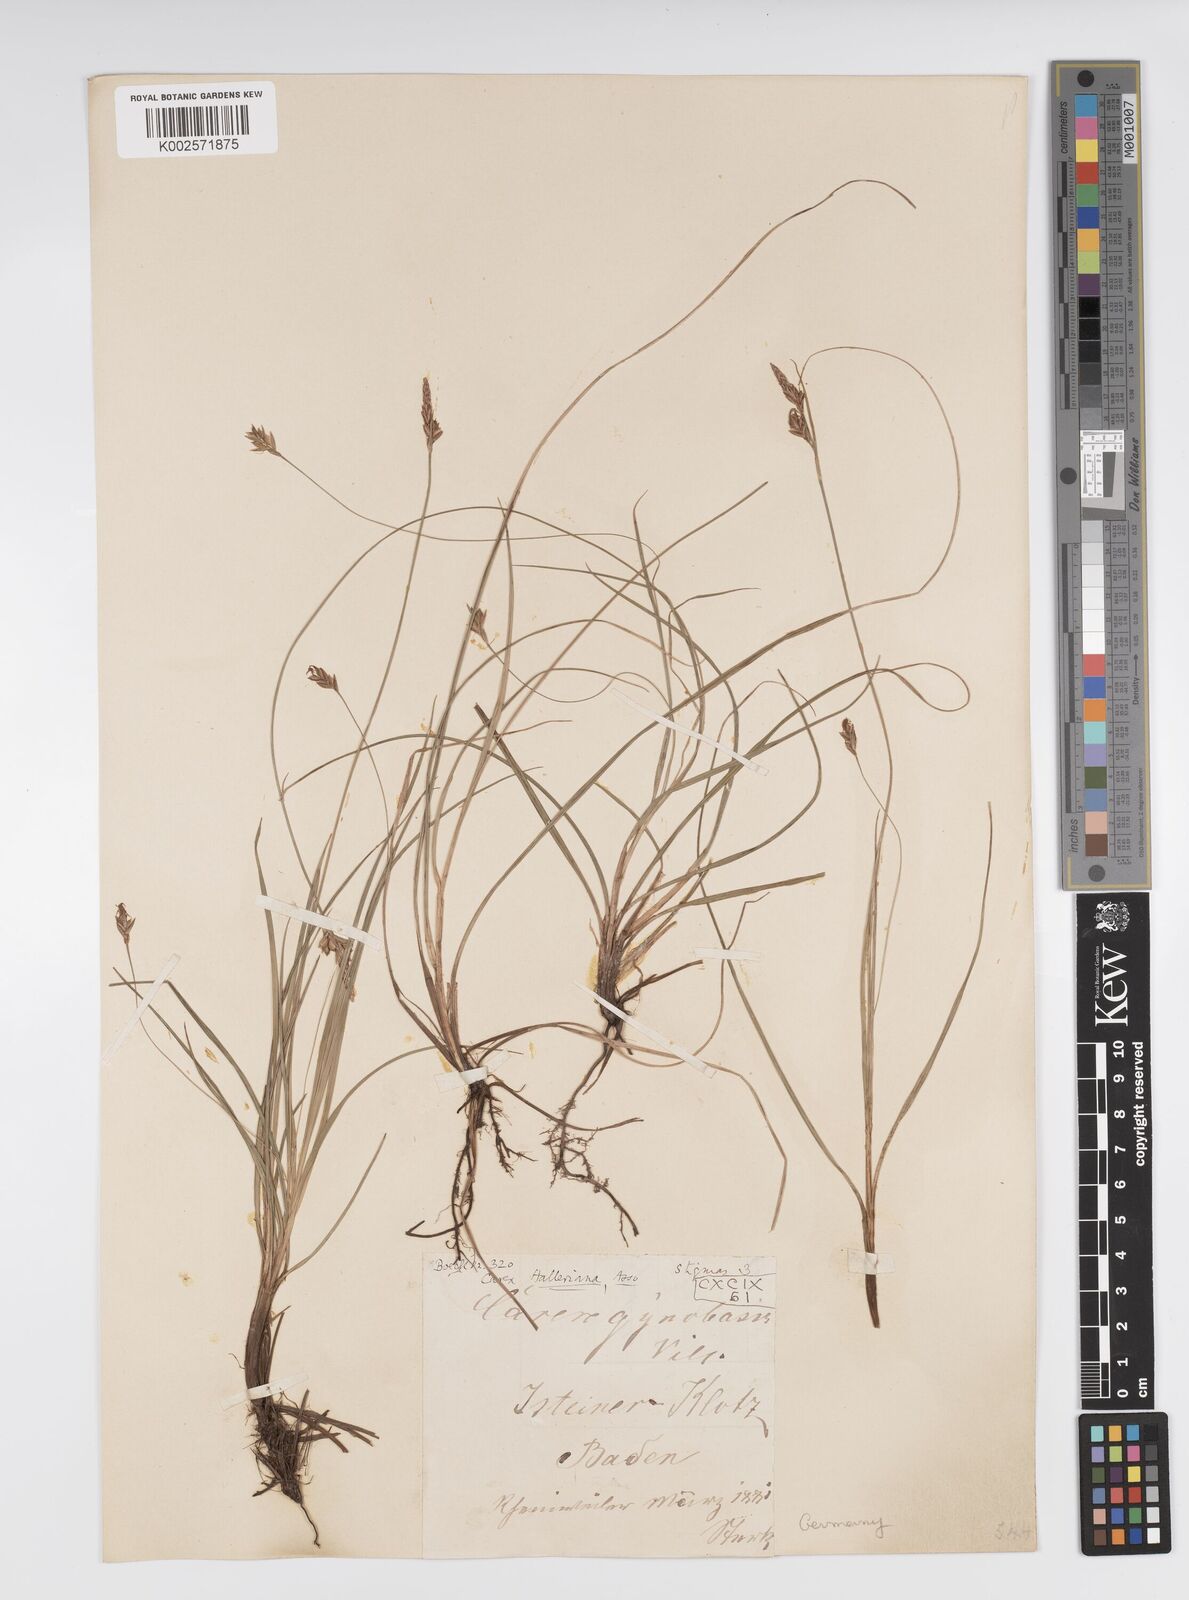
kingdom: Plantae
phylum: Tracheophyta
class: Liliopsida
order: Poales
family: Cyperaceae
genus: Carex
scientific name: Carex halleriana
